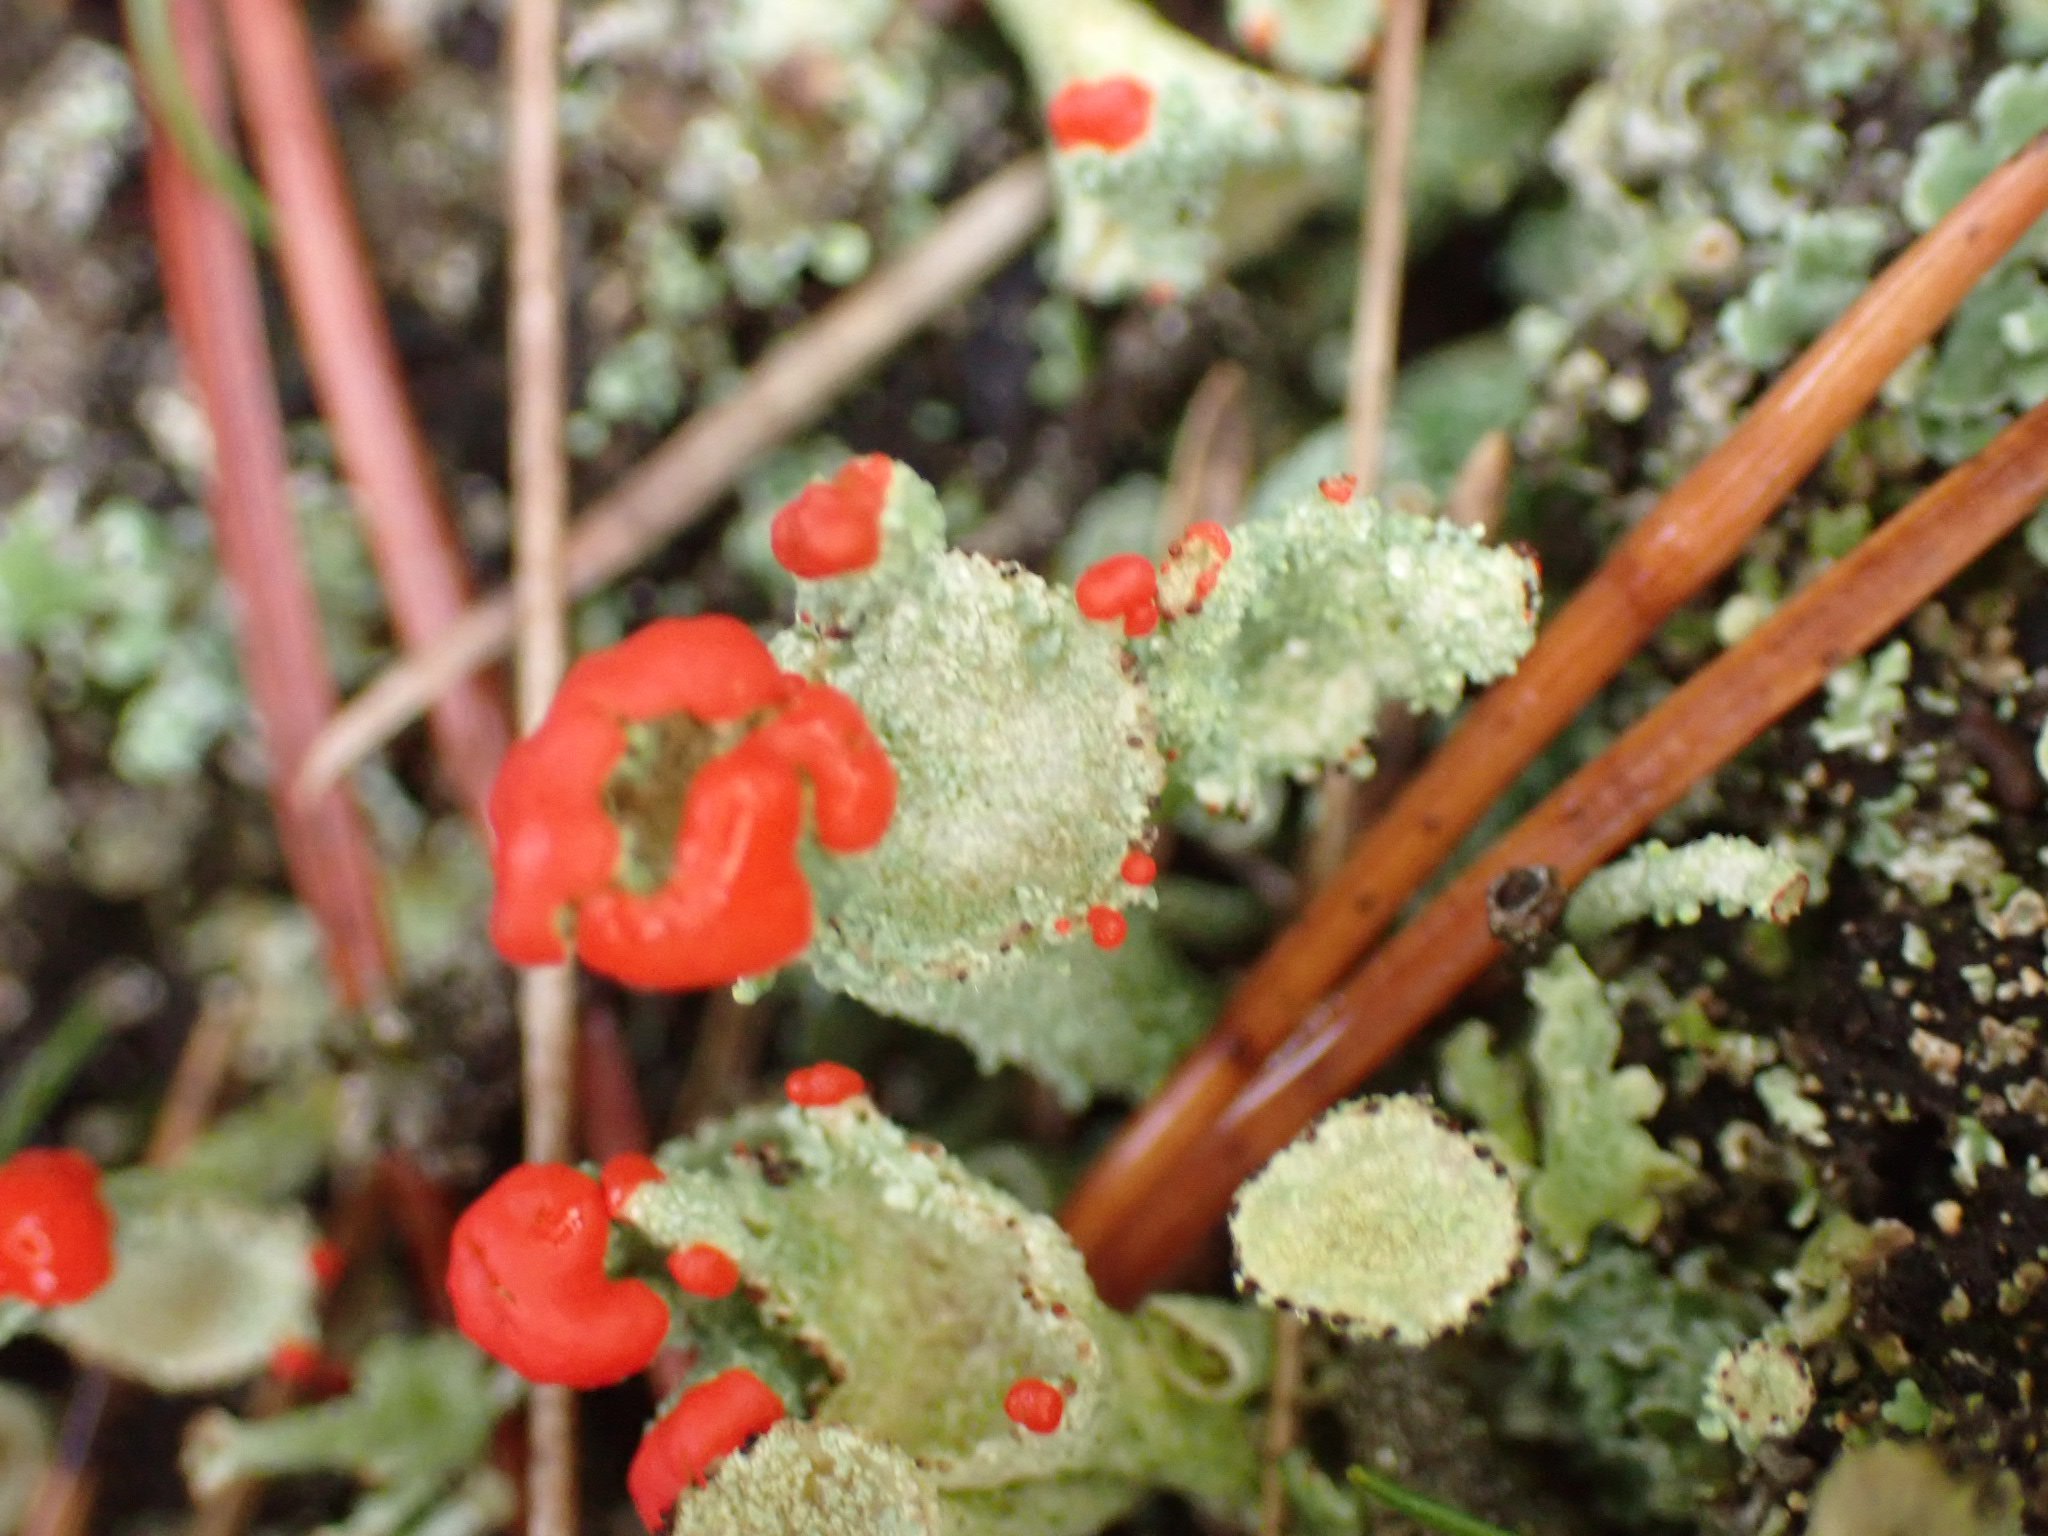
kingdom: Fungi
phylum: Ascomycota
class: Lecanoromycetes
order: Lecanorales
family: Cladoniaceae
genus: Cladonia
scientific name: Cladonia diversa
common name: rød bægerlav
